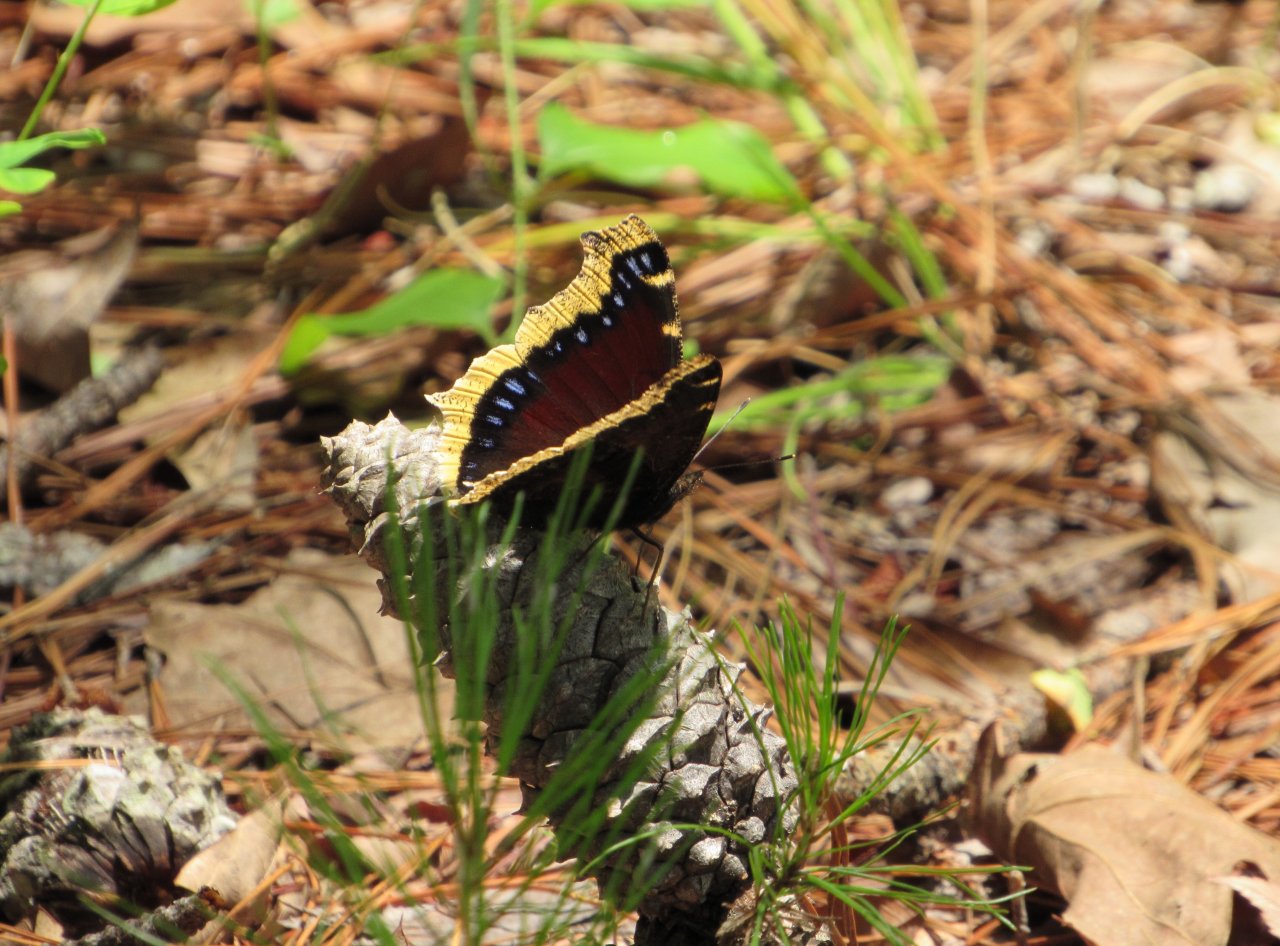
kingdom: Animalia
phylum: Arthropoda
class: Insecta
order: Lepidoptera
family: Nymphalidae
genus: Nymphalis
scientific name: Nymphalis antiopa
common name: Mourning Cloak
